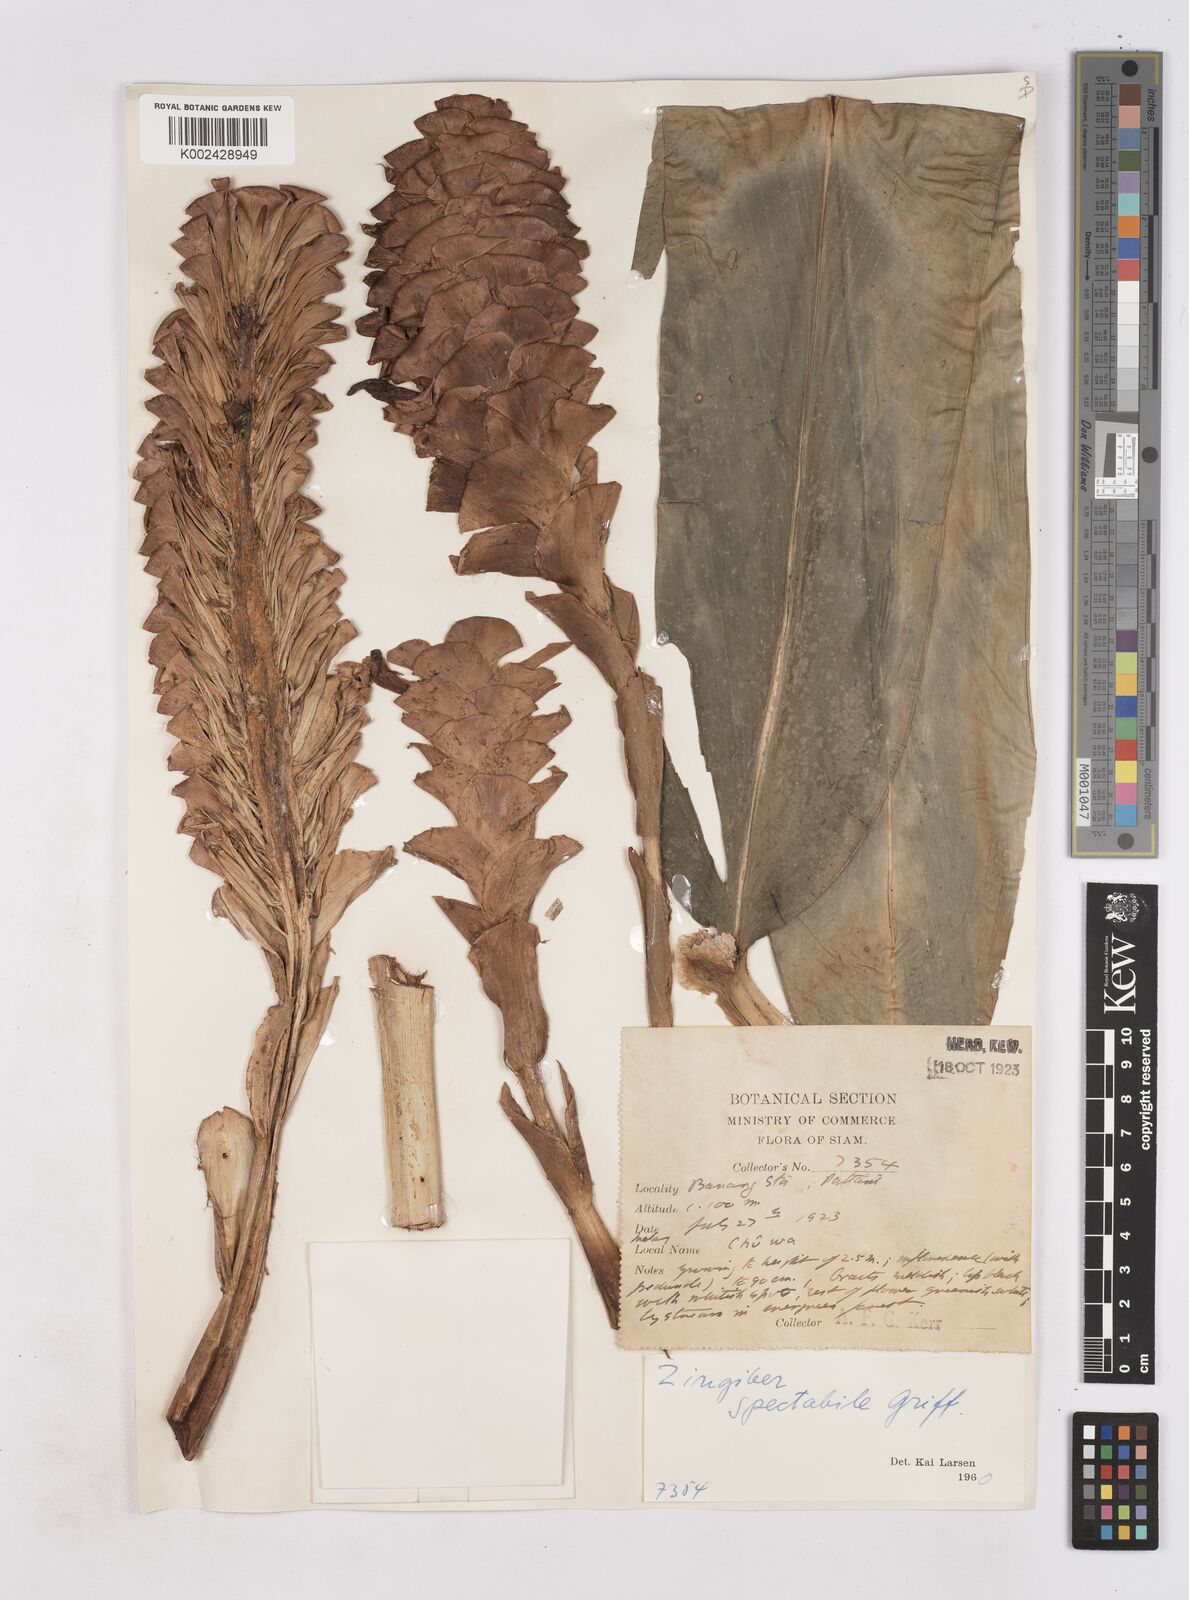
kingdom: Plantae
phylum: Tracheophyta
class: Liliopsida
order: Zingiberales
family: Zingiberaceae
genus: Zingiber
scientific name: Zingiber spectabile
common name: Beehive ginger
